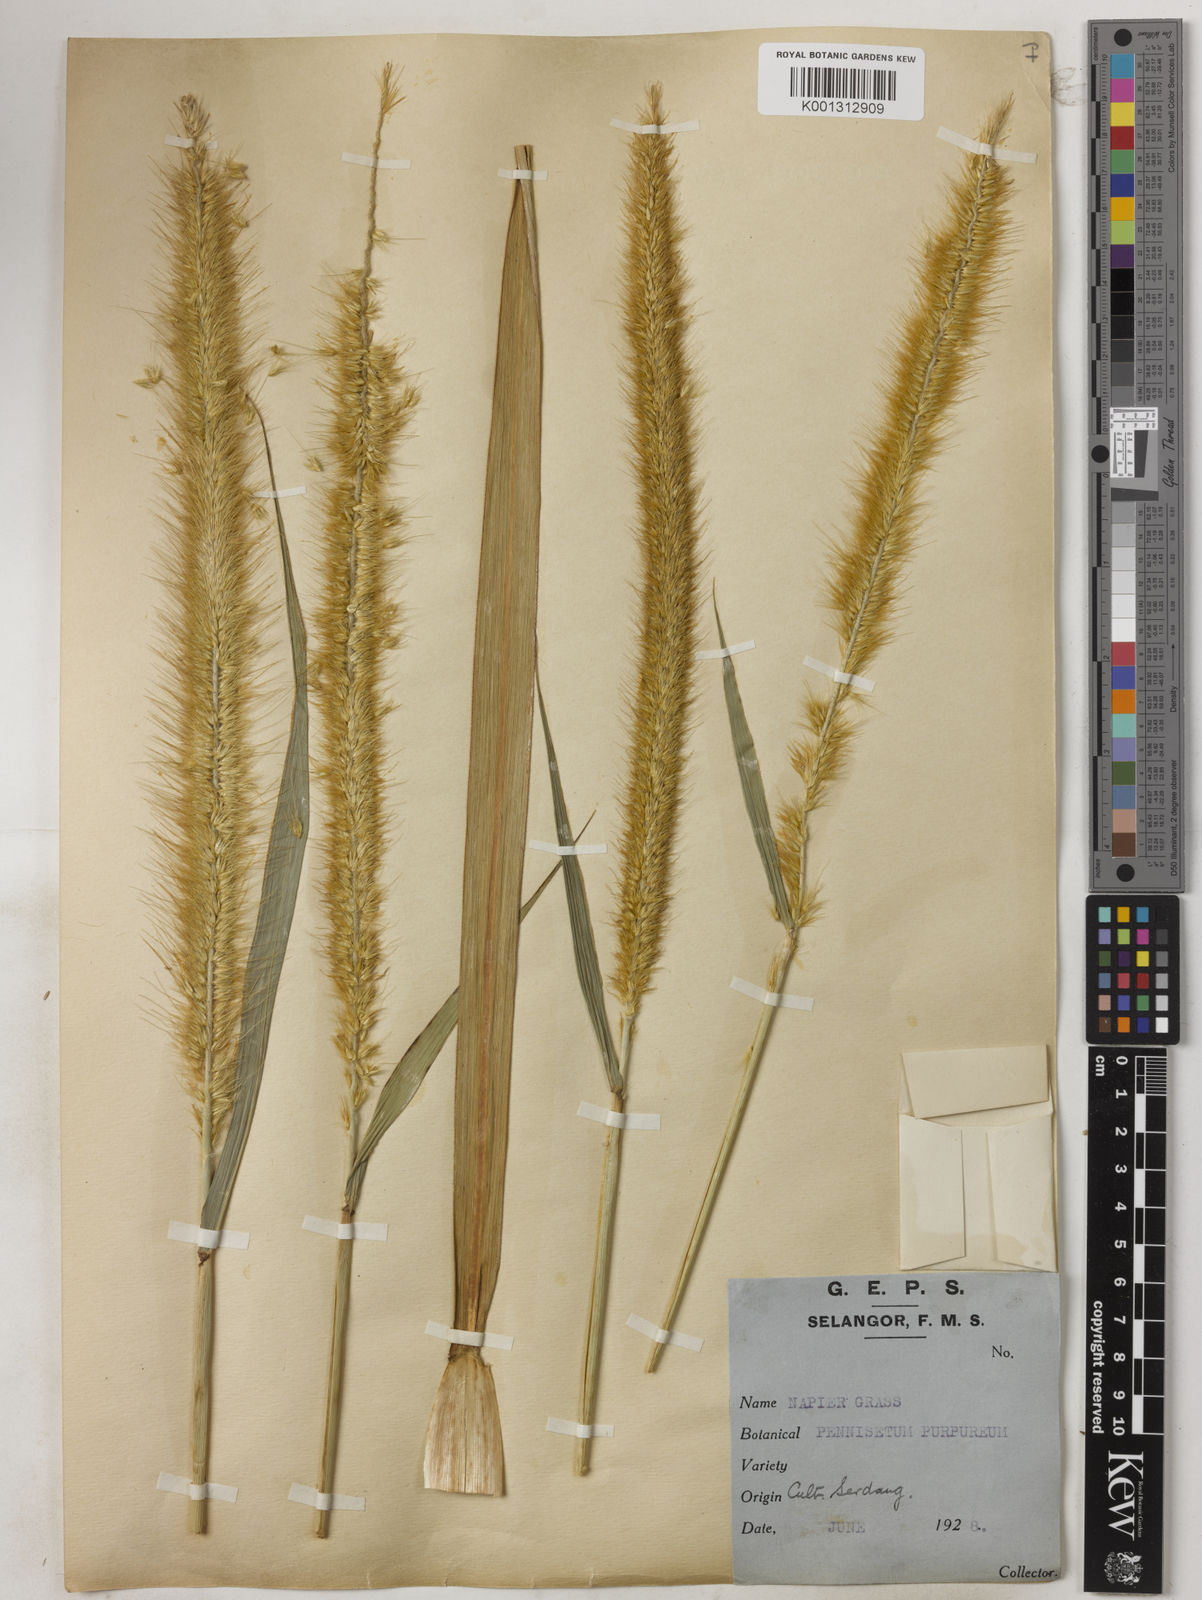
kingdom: Plantae
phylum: Tracheophyta
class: Liliopsida
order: Poales
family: Poaceae
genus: Cenchrus
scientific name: Cenchrus purpureus
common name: Elephant grass
